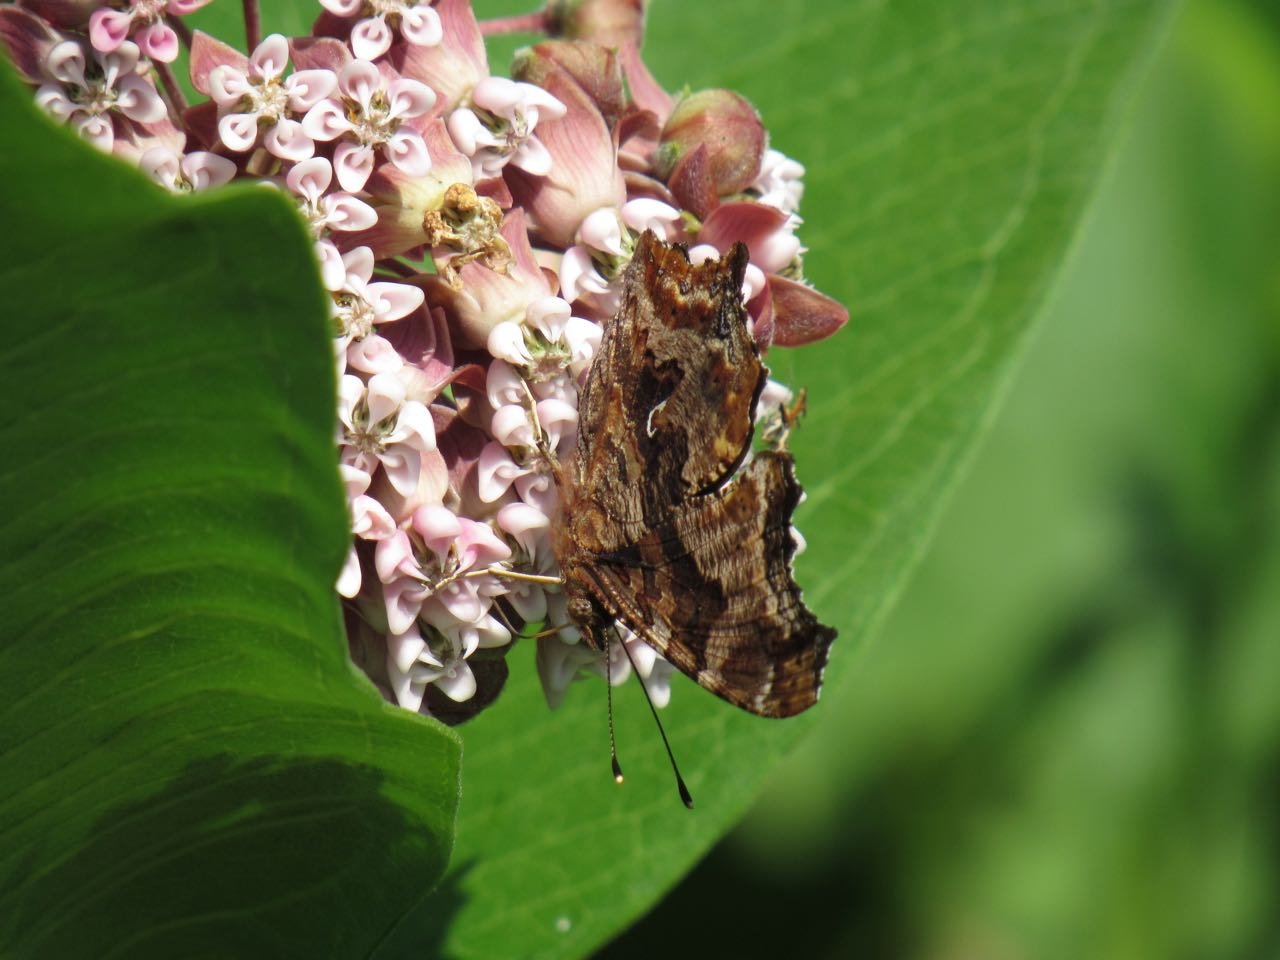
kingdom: Animalia
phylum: Arthropoda
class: Insecta
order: Lepidoptera
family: Nymphalidae
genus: Polygonia
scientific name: Polygonia comma
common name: Eastern Comma
